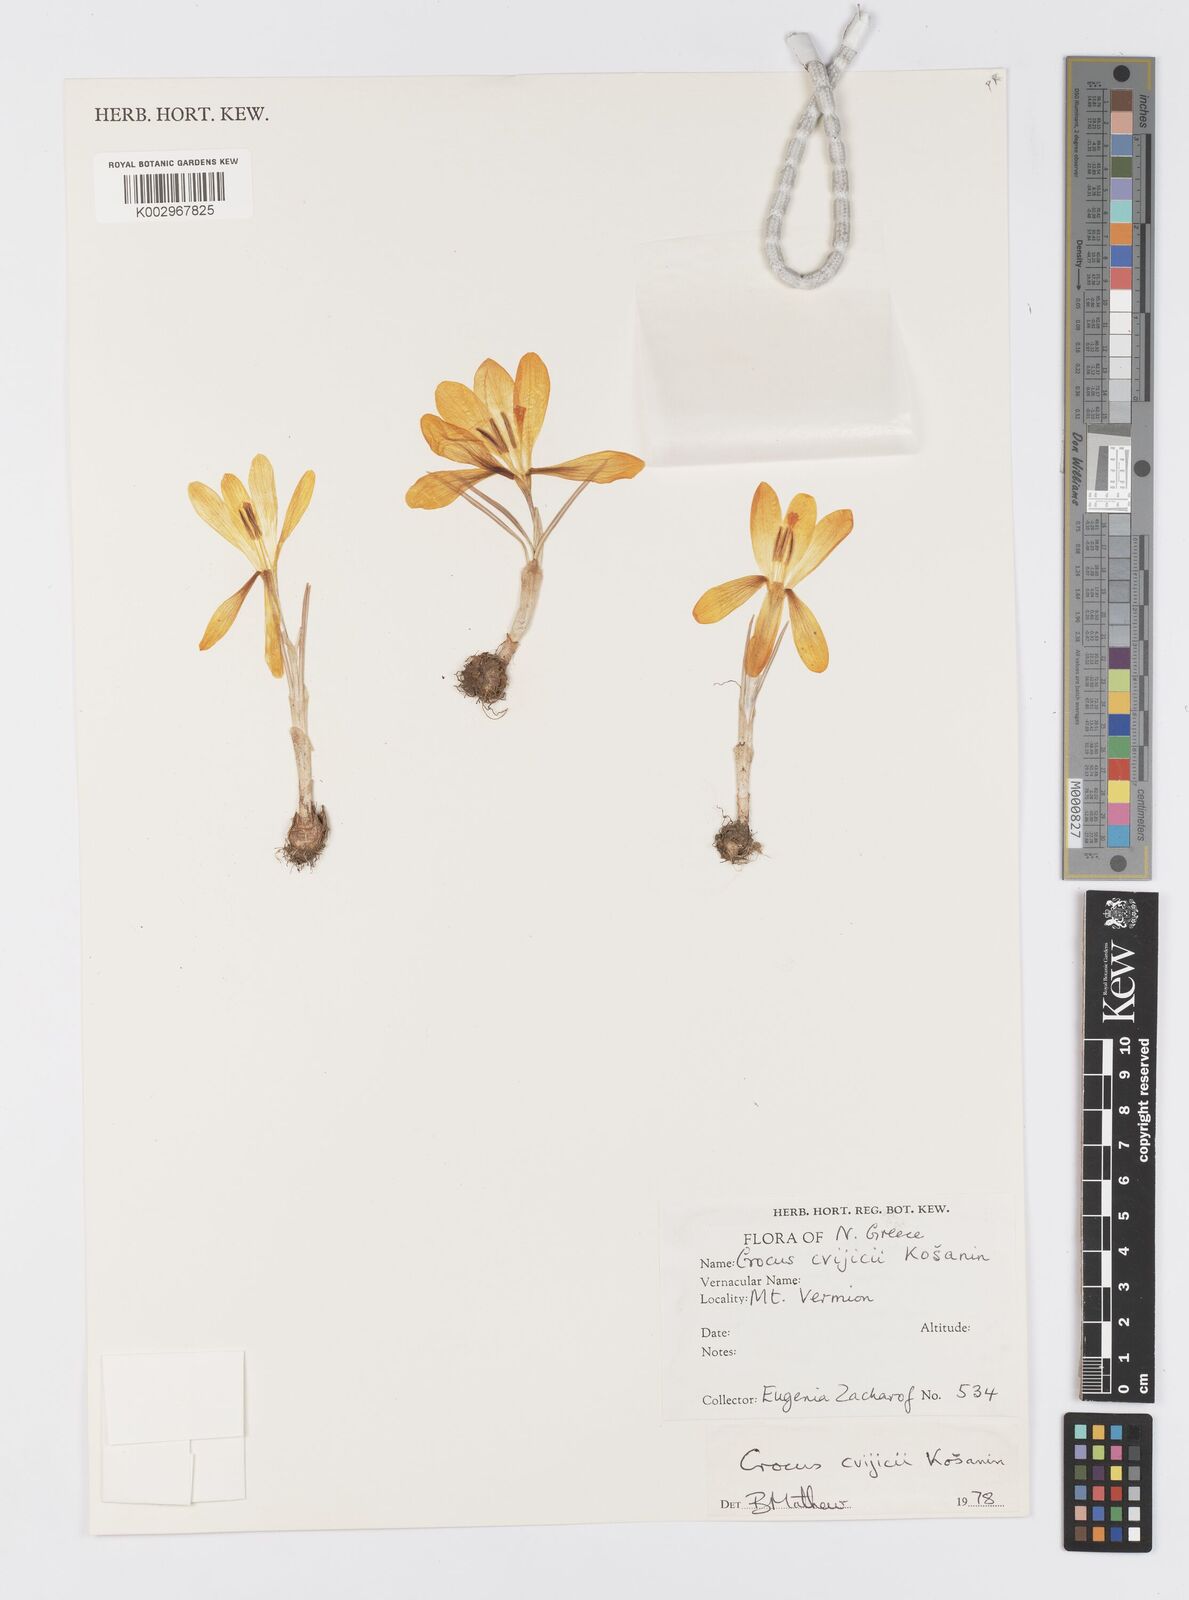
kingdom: Plantae
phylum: Tracheophyta
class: Liliopsida
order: Asparagales
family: Iridaceae
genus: Crocus
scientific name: Crocus cvijicii
